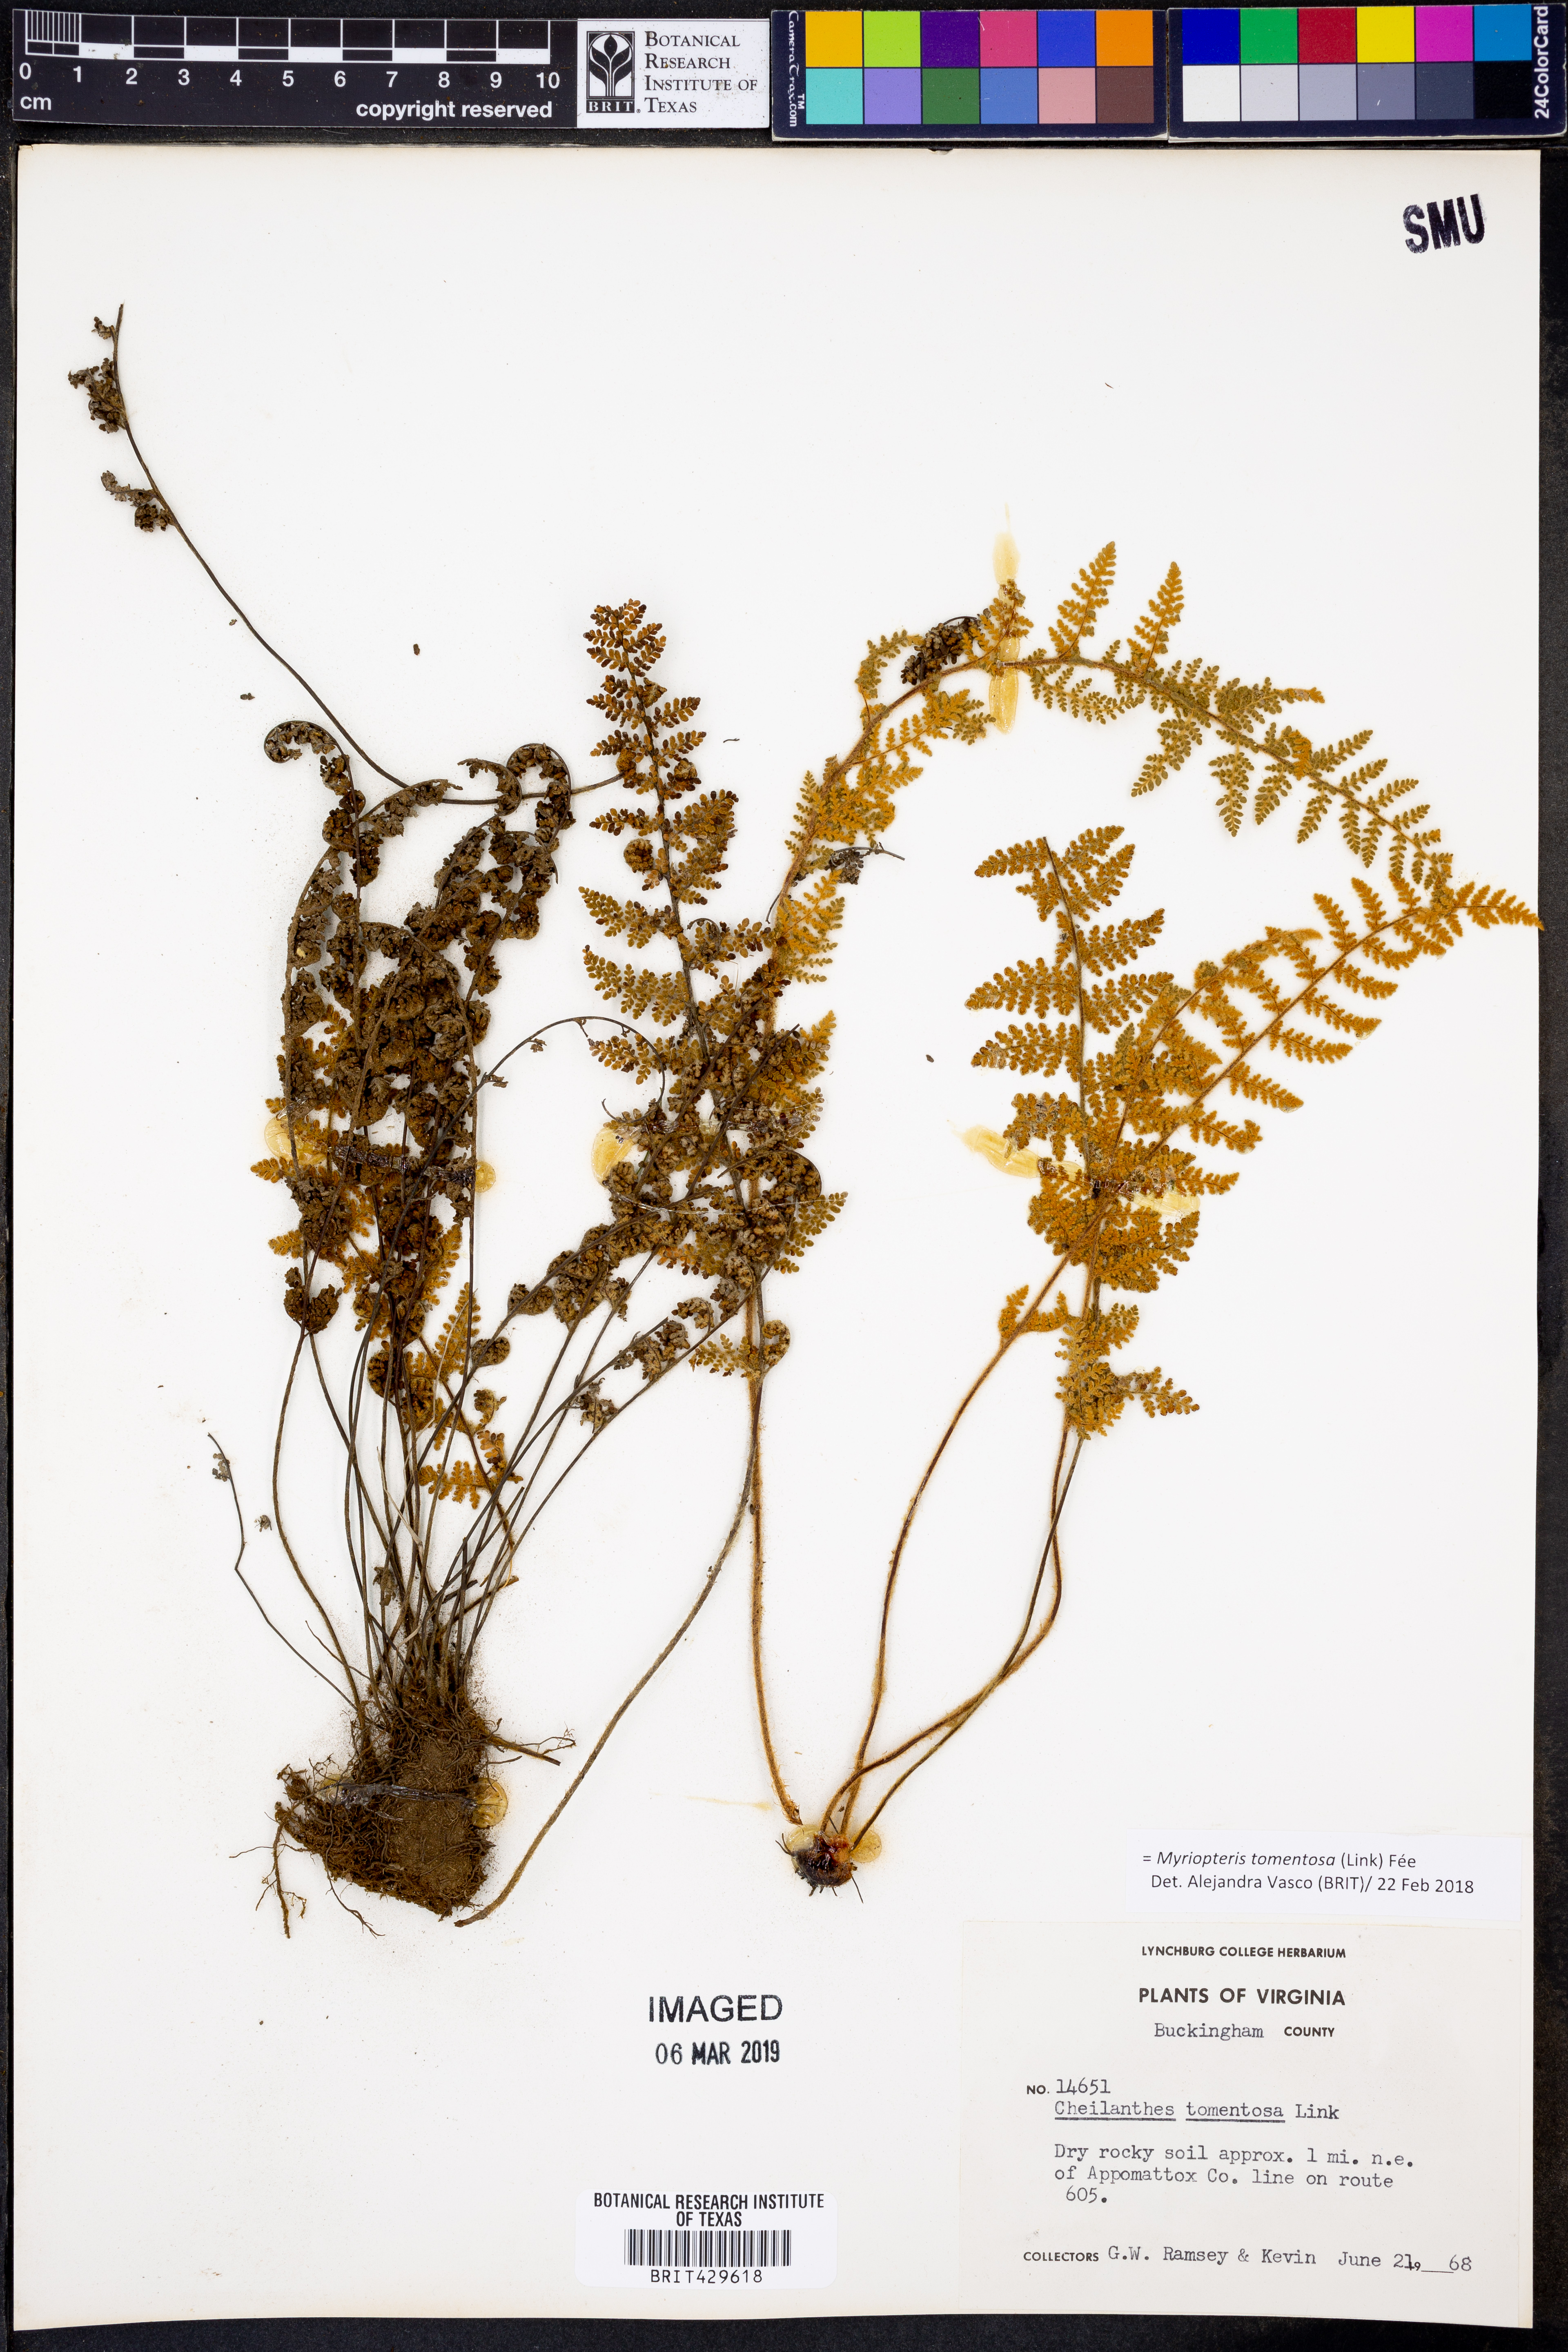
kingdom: Plantae
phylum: Tracheophyta
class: Polypodiopsida
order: Polypodiales
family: Pteridaceae
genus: Myriopteris
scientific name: Myriopteris tomentosa
